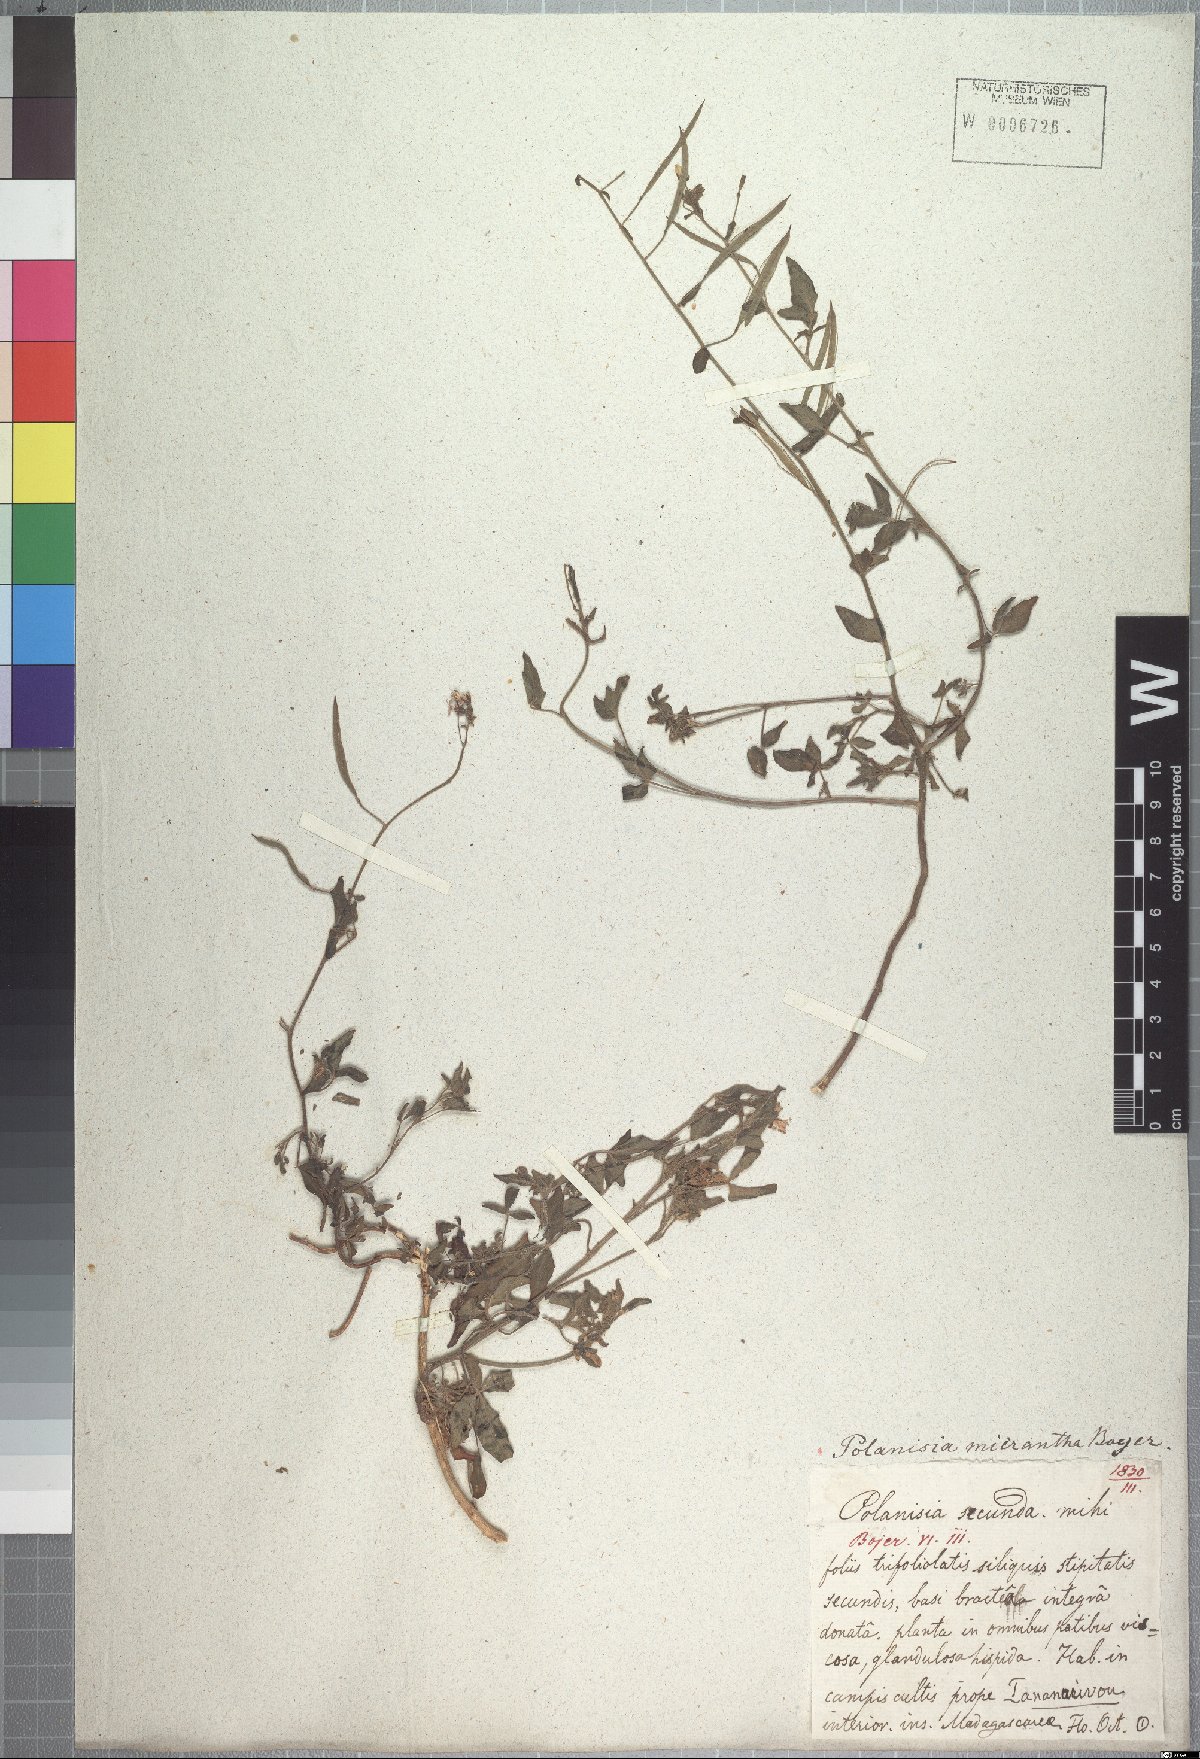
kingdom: Plantae
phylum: Tracheophyta
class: Magnoliopsida
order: Brassicales
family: Cleomaceae
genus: Sieruela
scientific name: Sieruela micrantha
